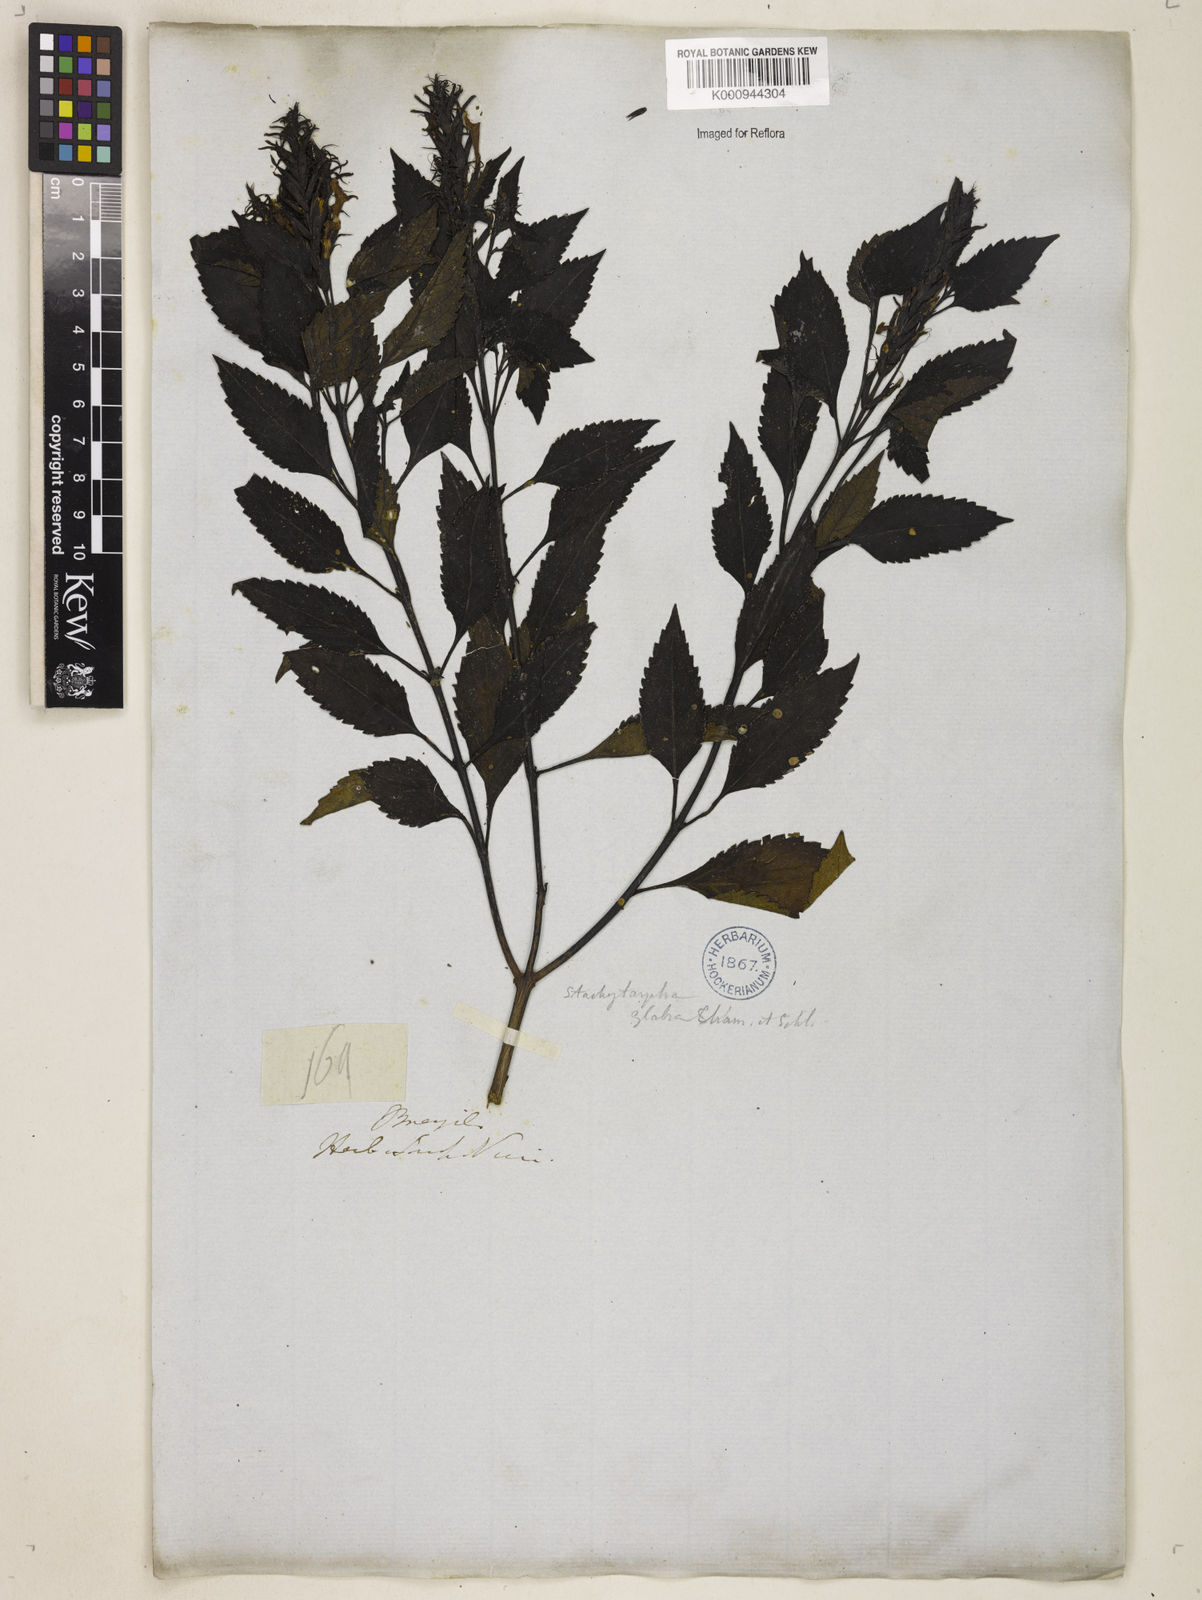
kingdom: Plantae
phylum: Tracheophyta
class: Magnoliopsida
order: Lamiales
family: Verbenaceae
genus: Stachytarpheta
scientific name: Stachytarpheta glabra
